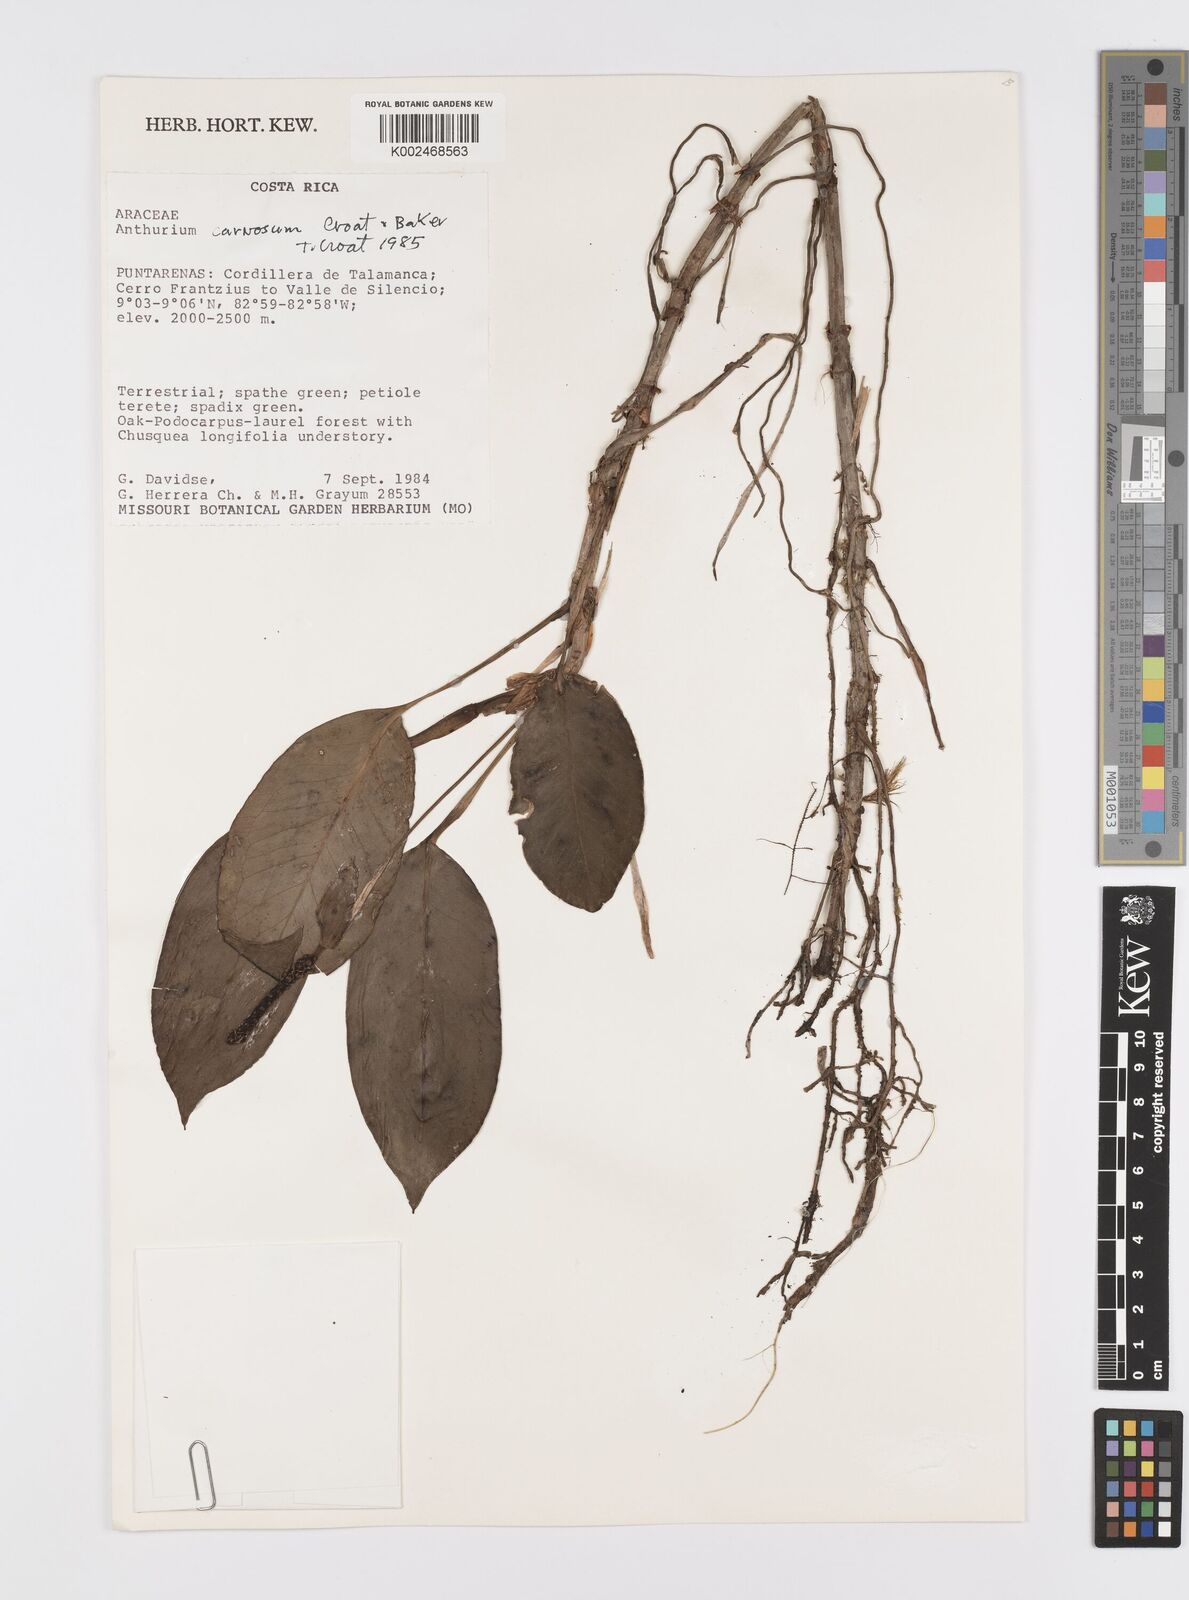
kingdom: Plantae
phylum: Tracheophyta
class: Liliopsida
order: Alismatales
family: Araceae
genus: Anthurium
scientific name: Anthurium carnosum
